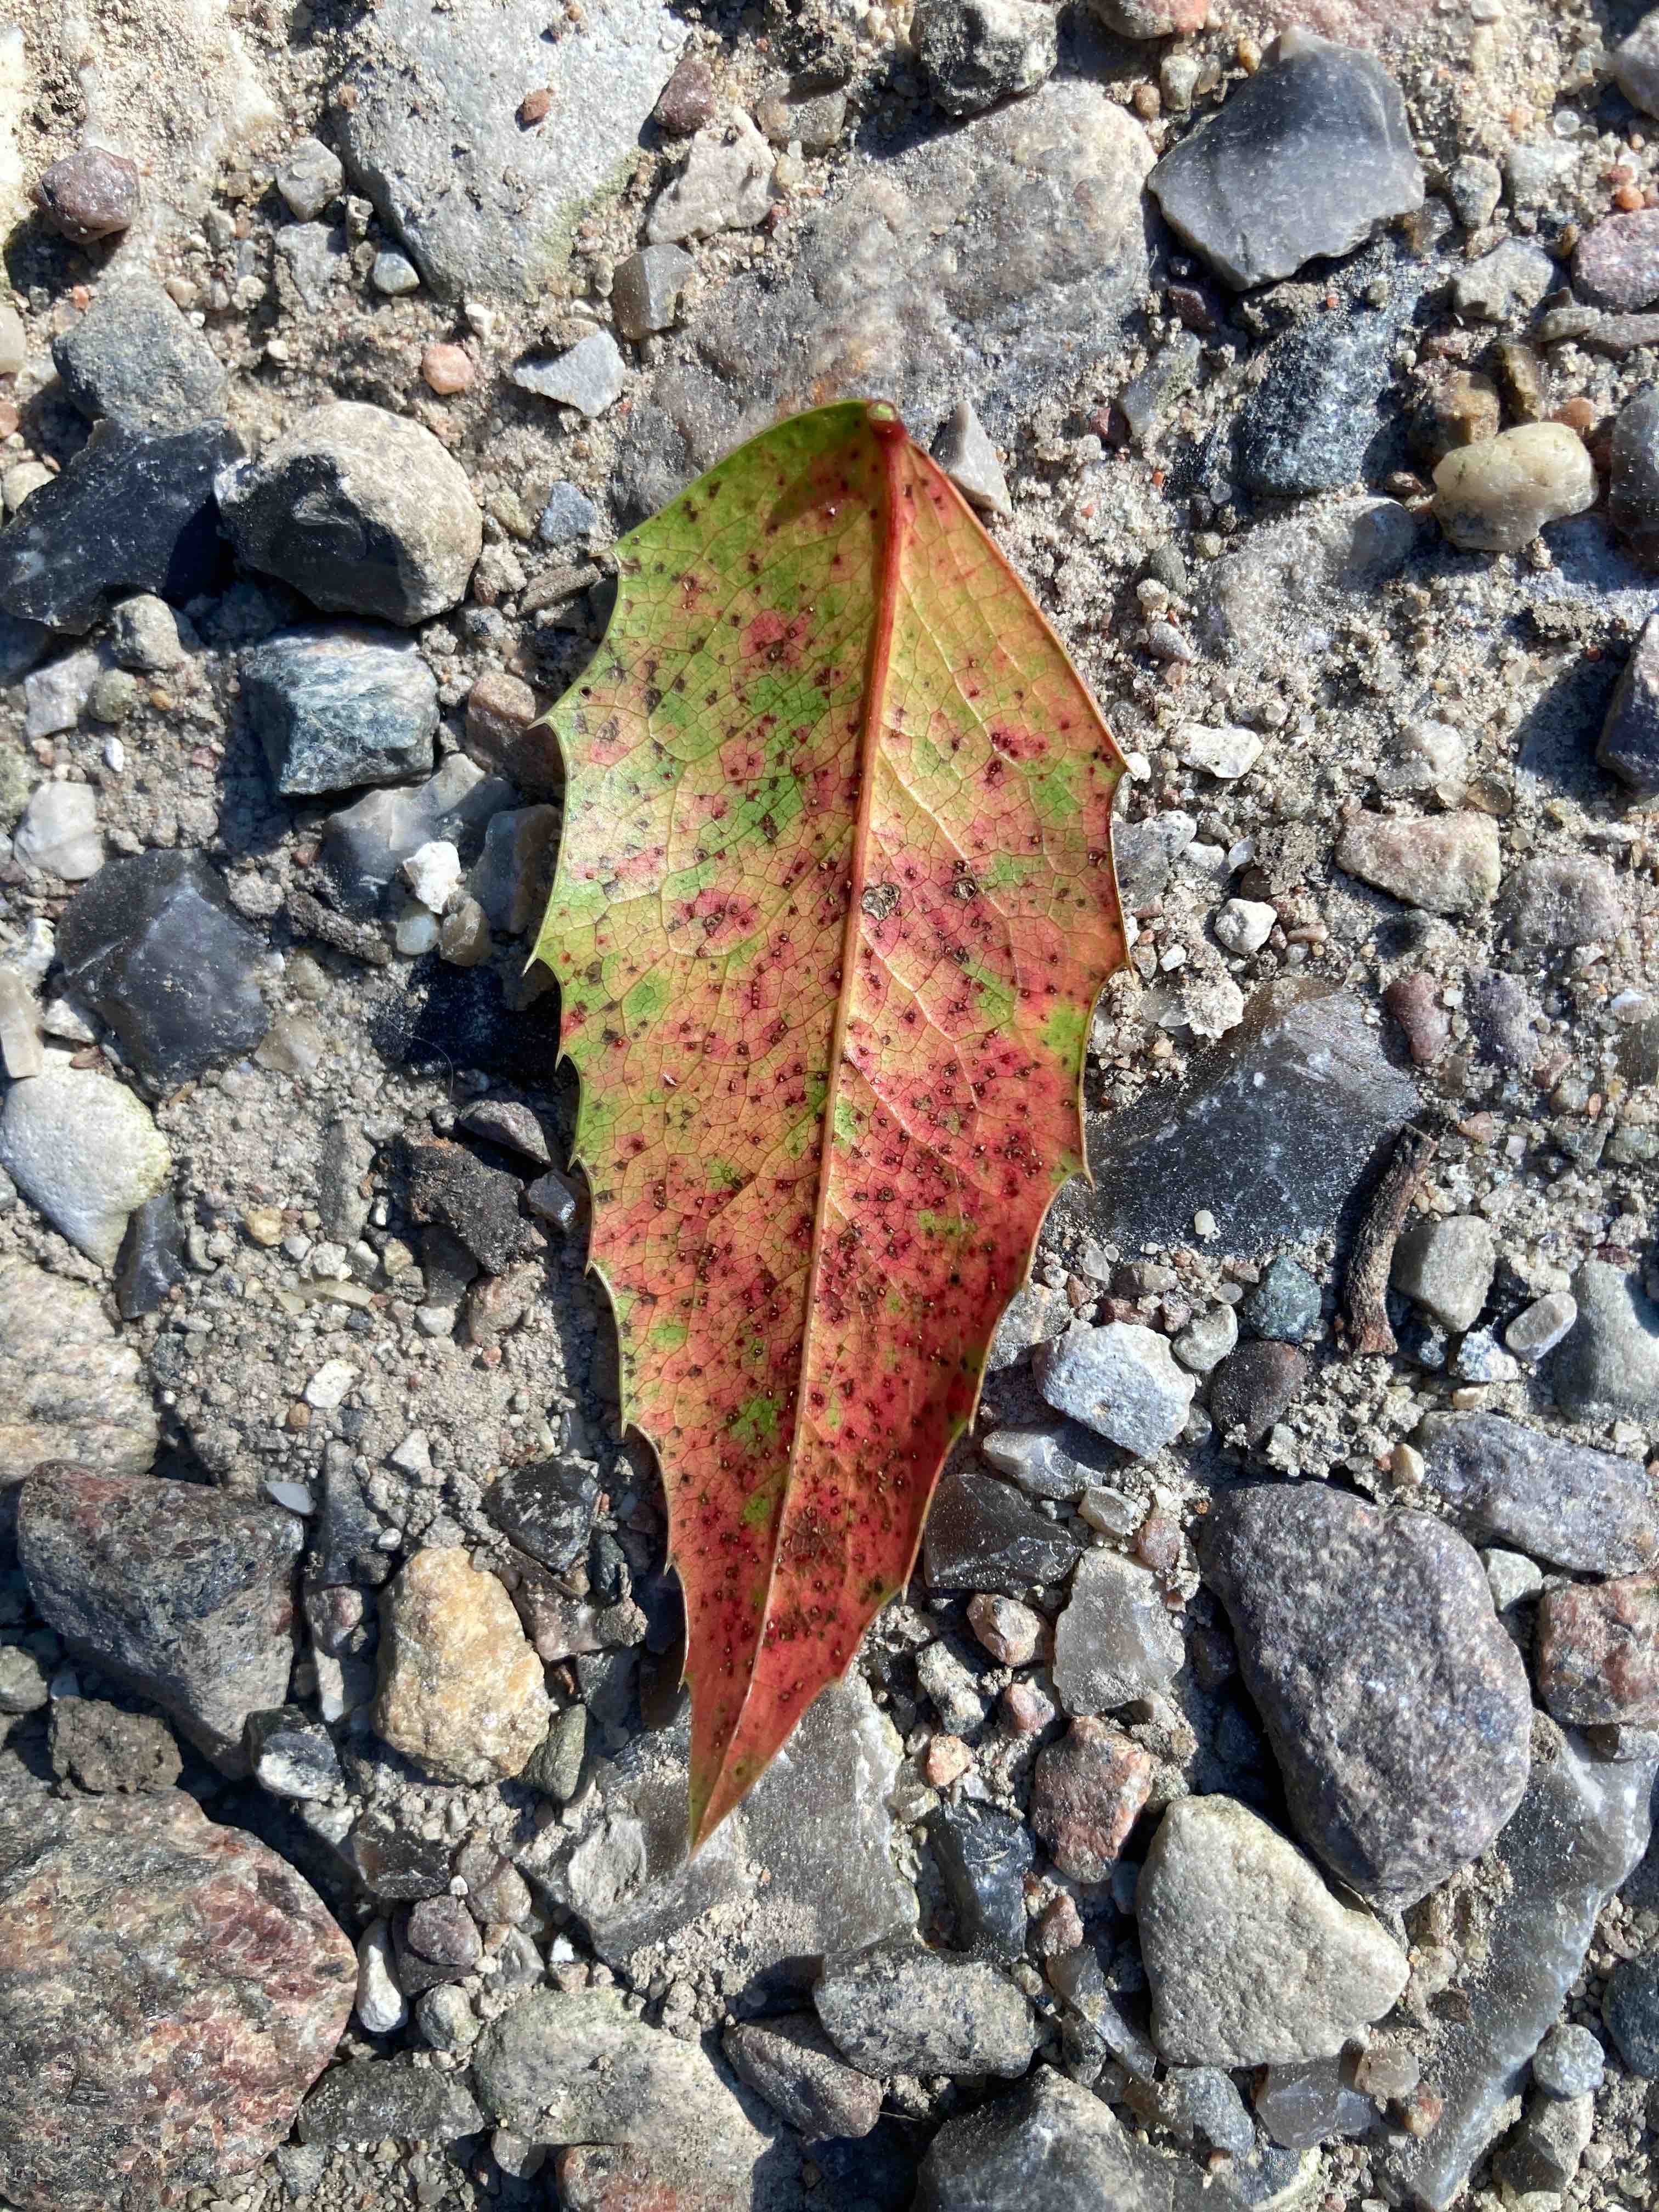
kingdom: Fungi
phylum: Basidiomycota
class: Pucciniomycetes
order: Pucciniales
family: Pucciniaceae
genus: Cumminsiella
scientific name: Cumminsiella mirabilissima
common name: mahonierust
